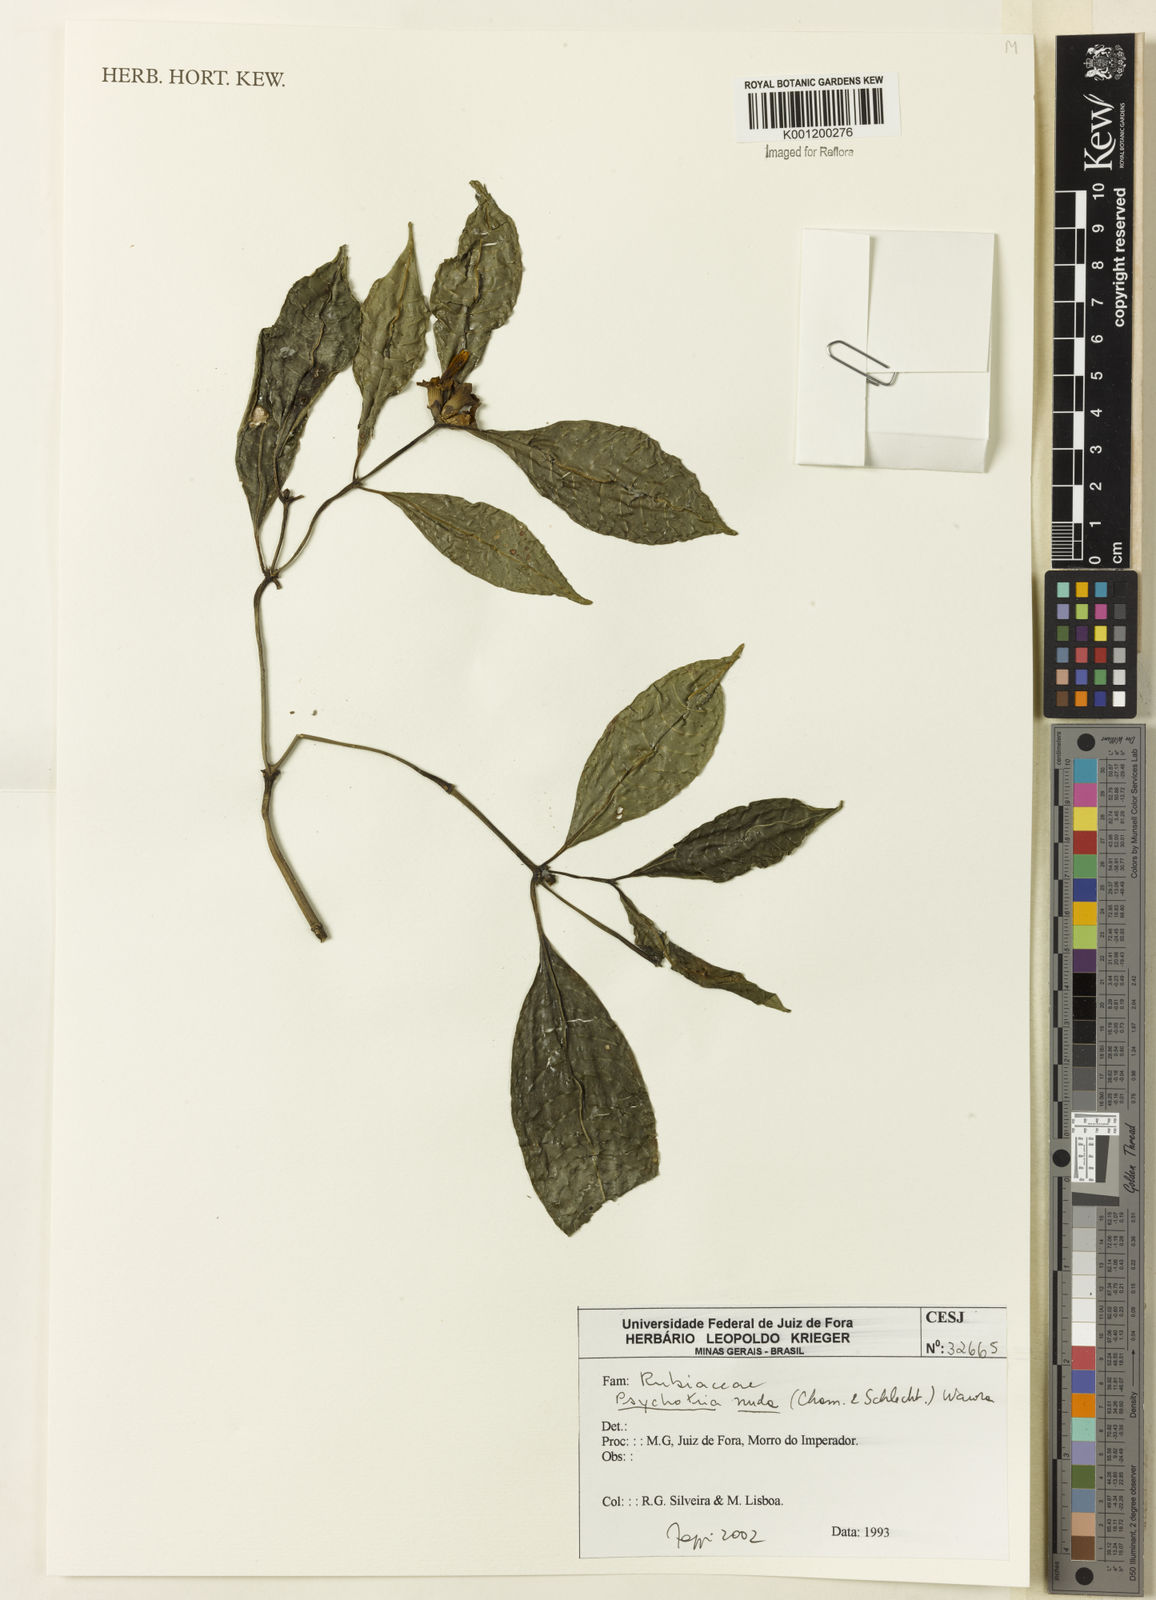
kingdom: Plantae
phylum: Tracheophyta
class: Magnoliopsida
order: Gentianales
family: Rubiaceae
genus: Psychotria
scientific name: Psychotria nuda
